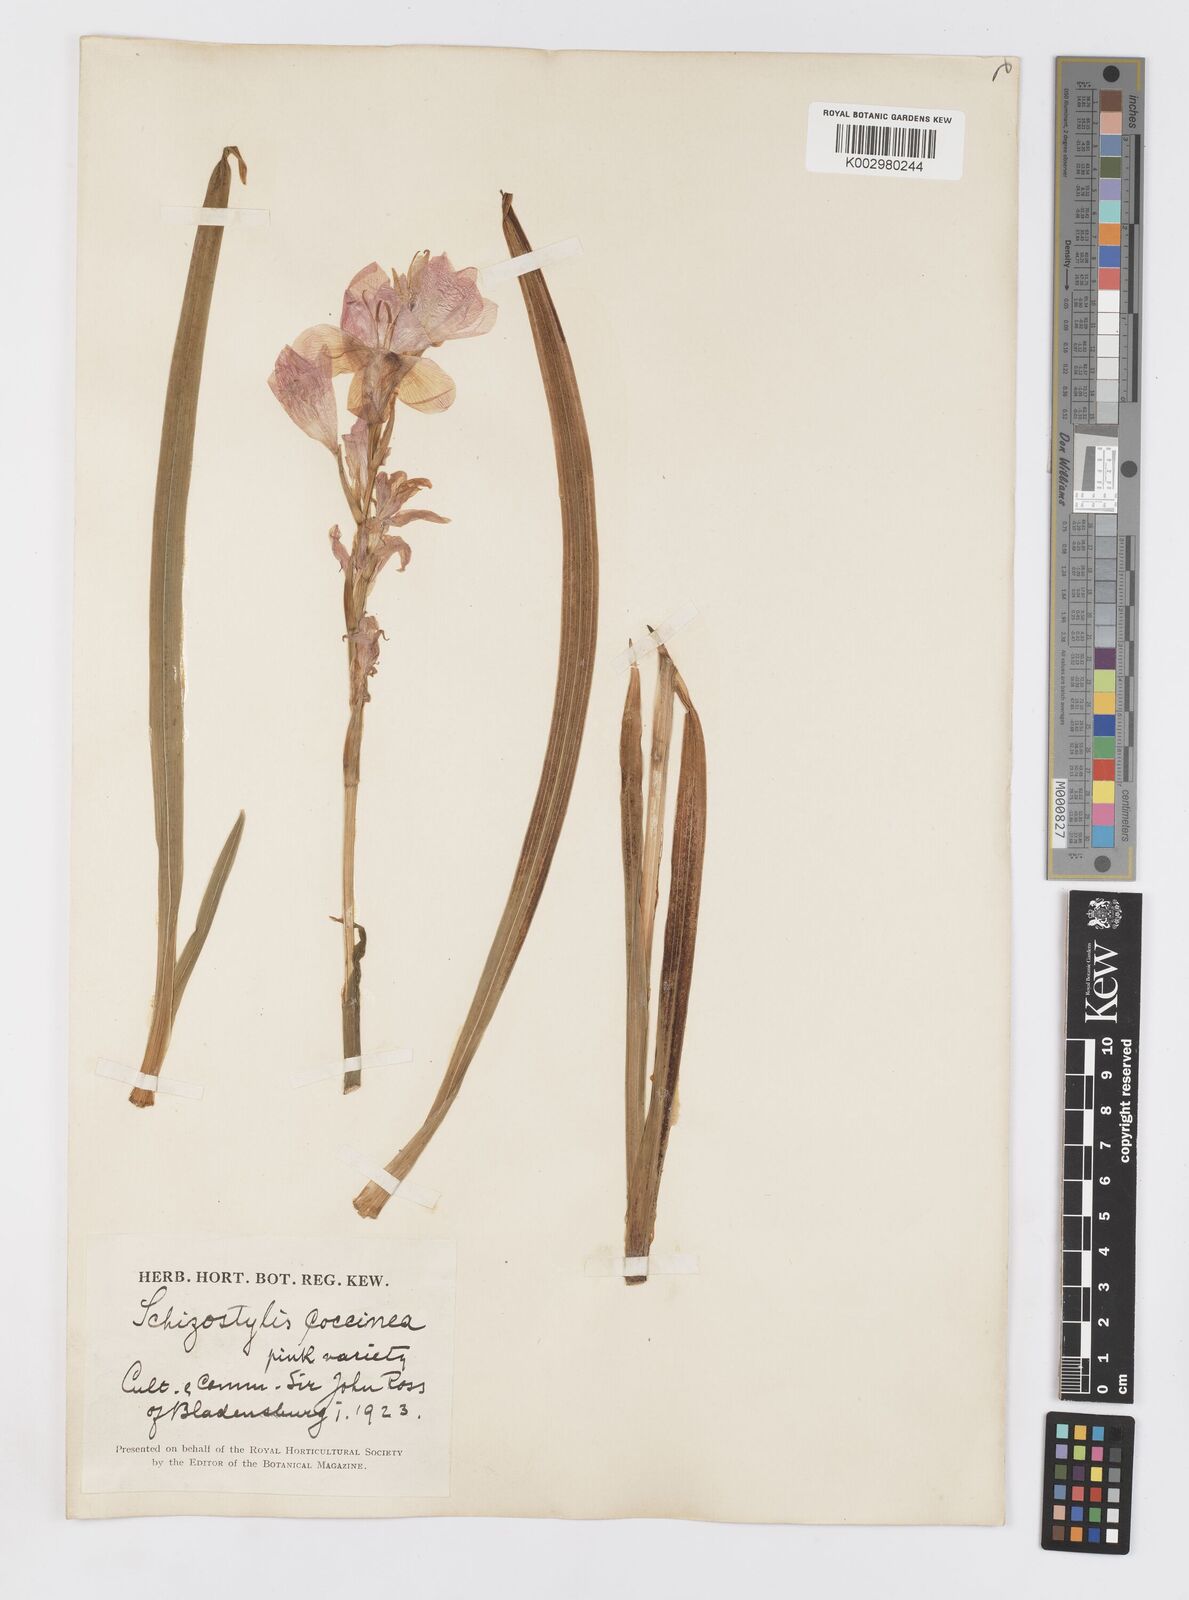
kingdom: Plantae
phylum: Tracheophyta
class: Liliopsida
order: Asparagales
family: Iridaceae
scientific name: Iridaceae
